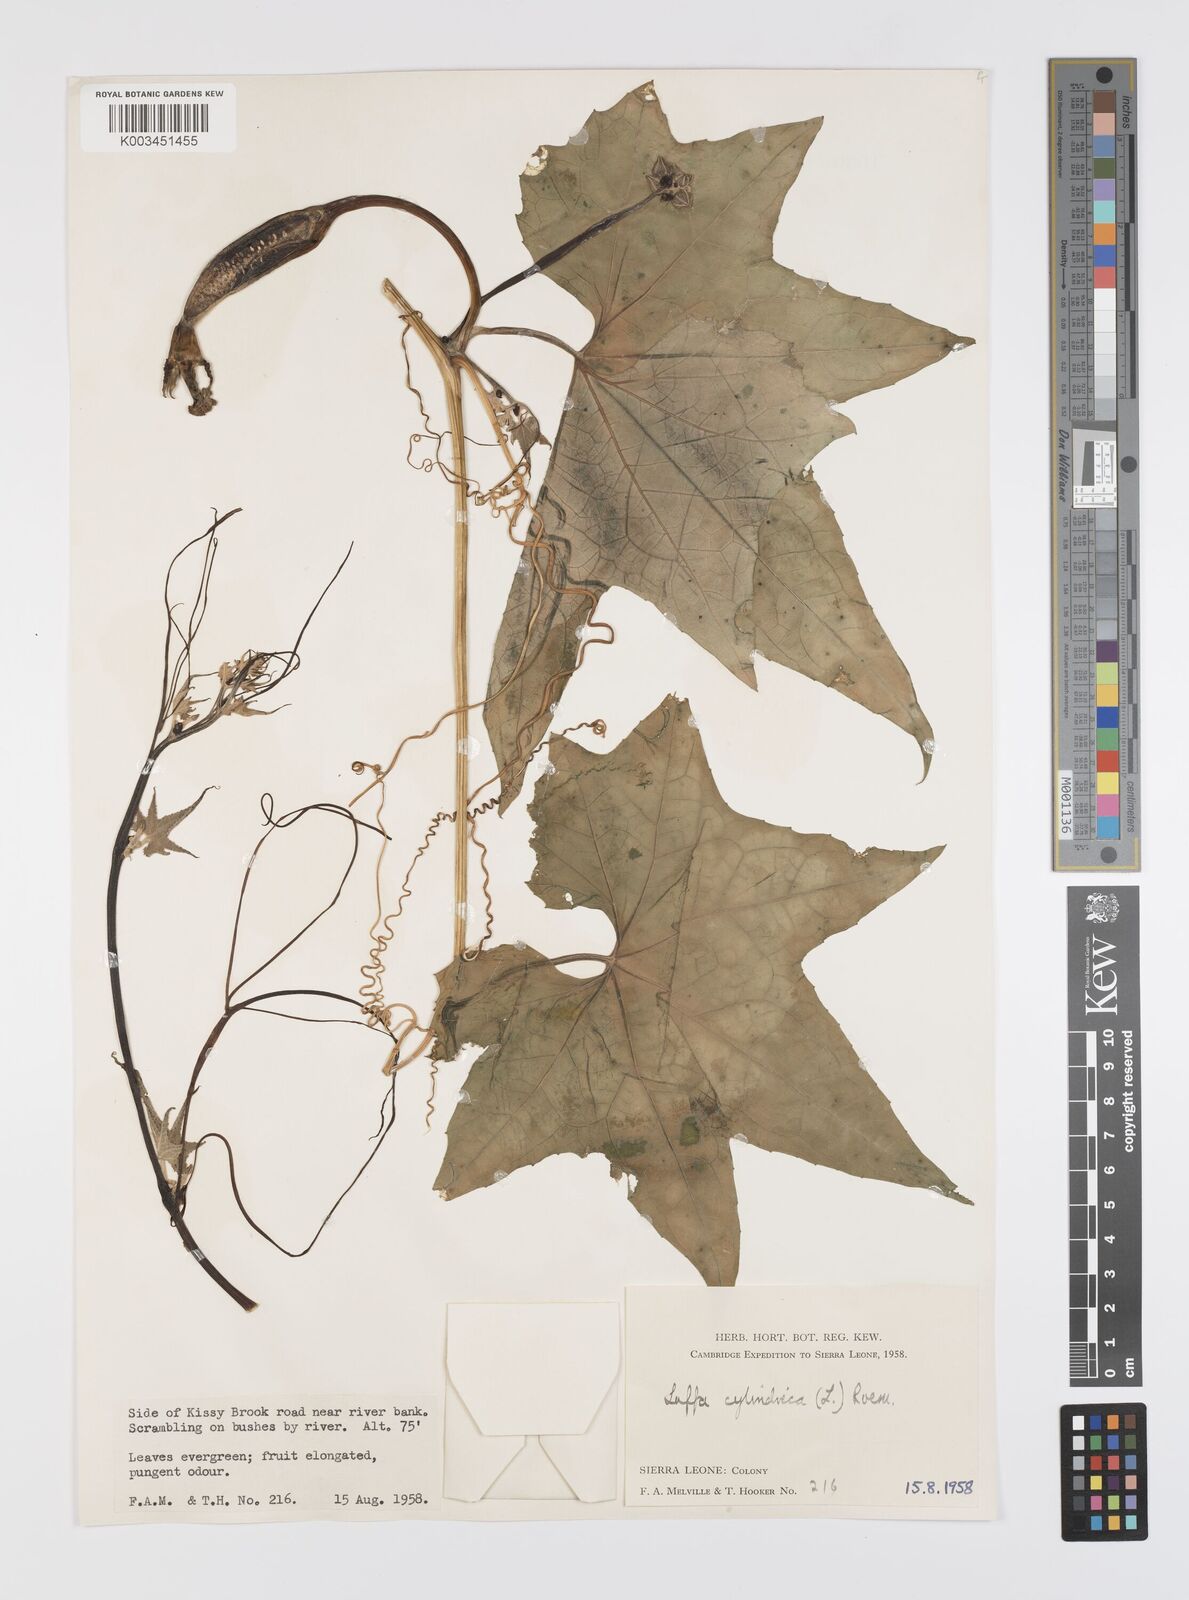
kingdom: Plantae
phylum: Tracheophyta
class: Magnoliopsida
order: Cucurbitales
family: Cucurbitaceae
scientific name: Cucurbitaceae
